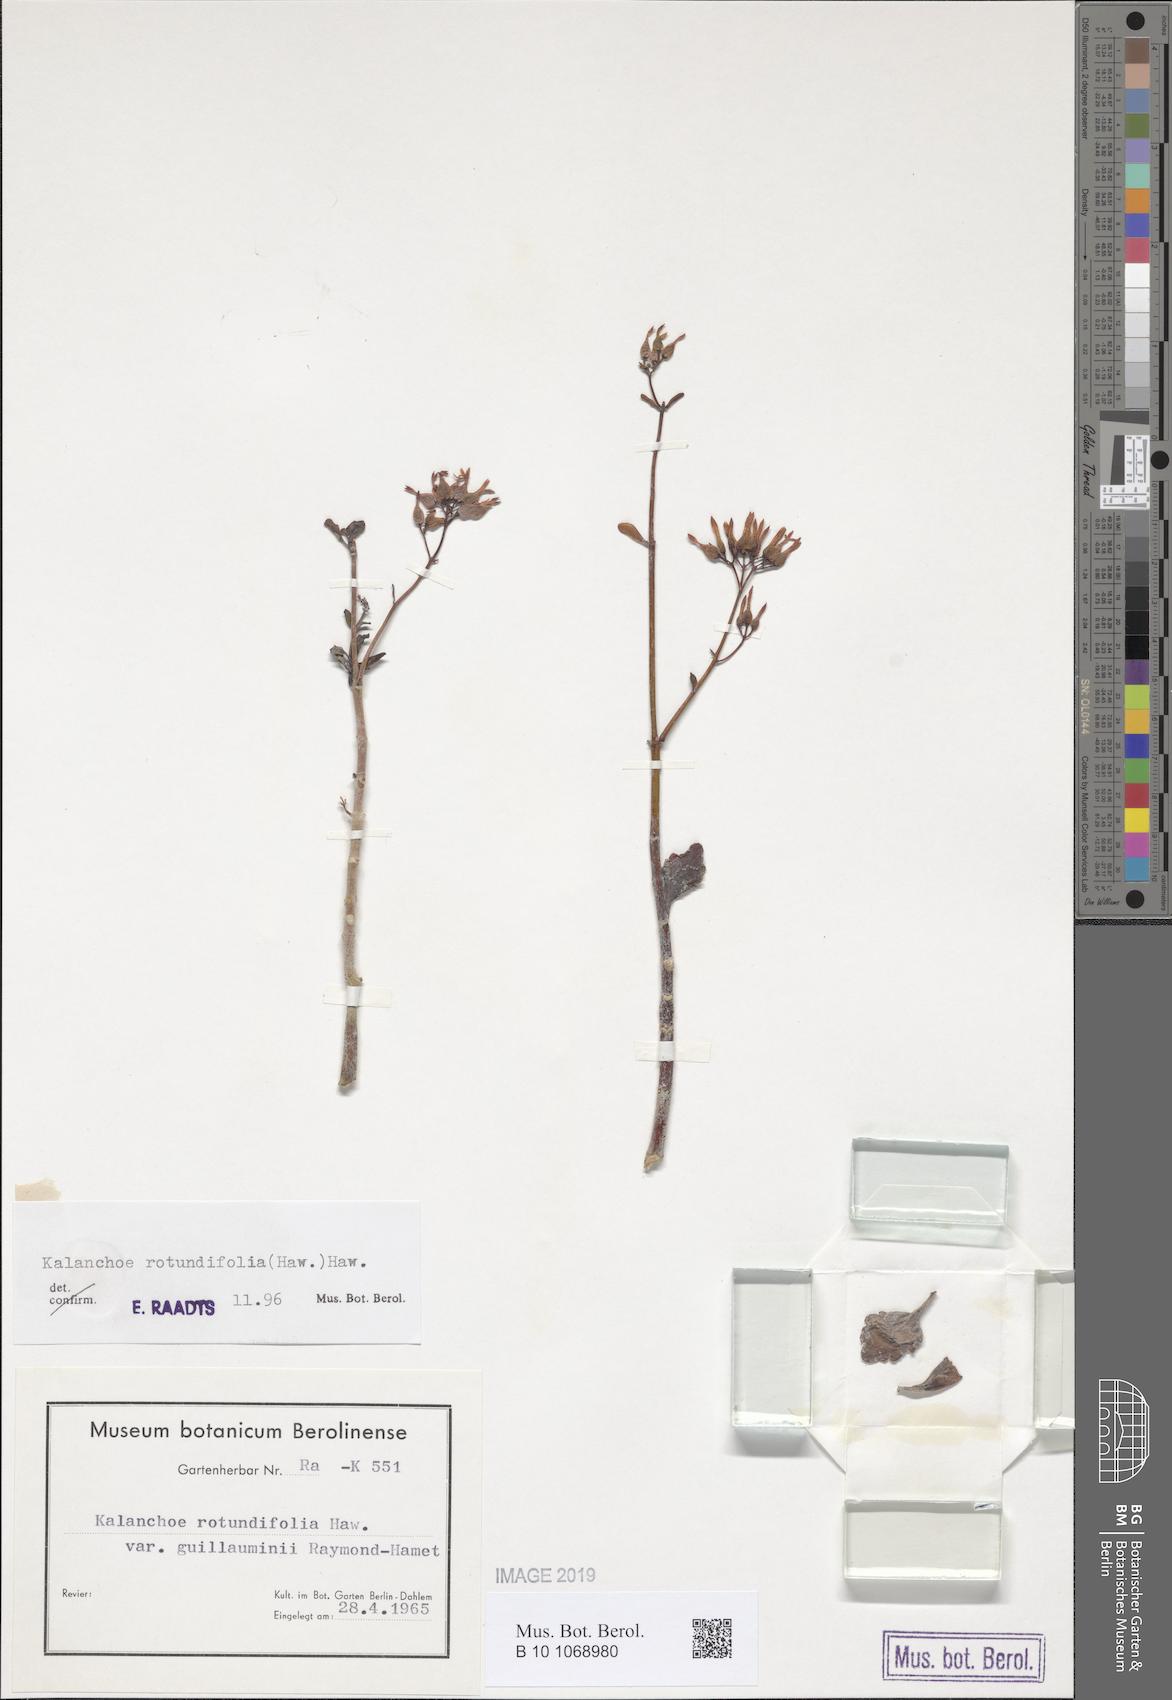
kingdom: Plantae
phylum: Tracheophyta
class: Magnoliopsida
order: Saxifragales
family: Crassulaceae
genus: Kalanchoe
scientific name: Kalanchoe rotundifolia
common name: Common kalanchoe
